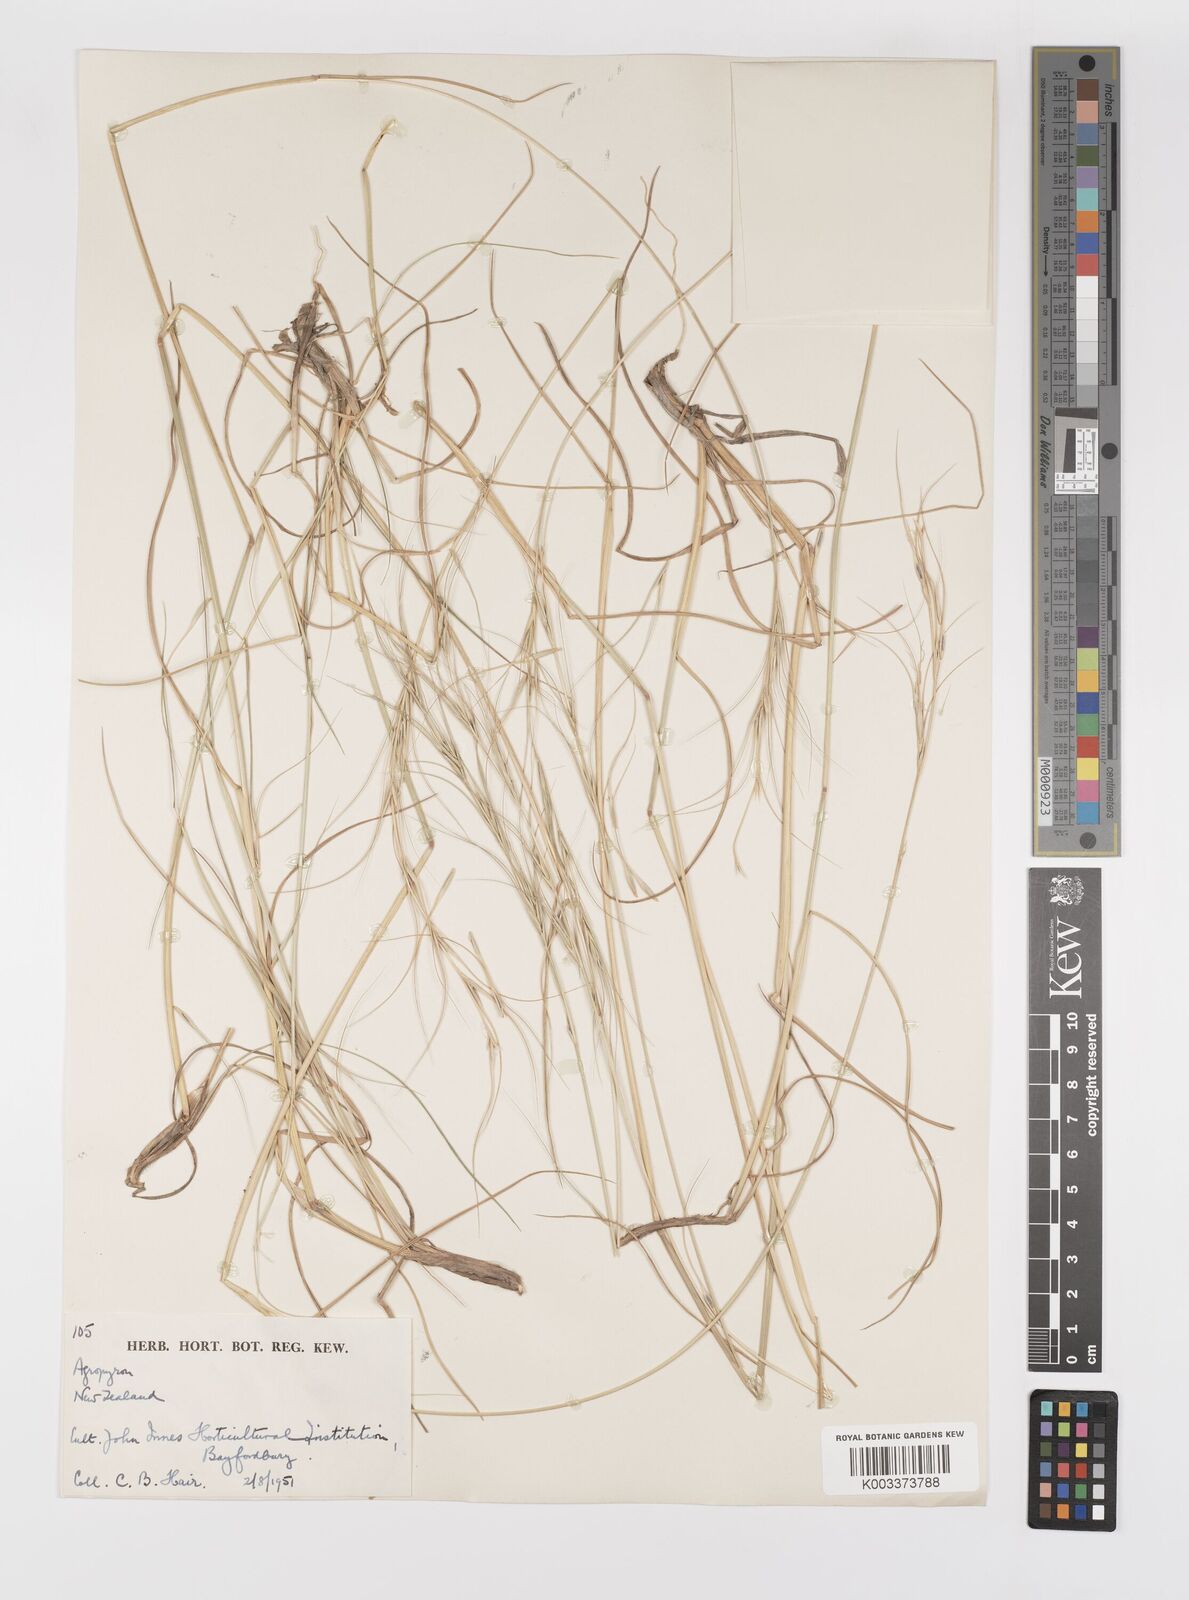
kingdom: Plantae
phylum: Tracheophyta
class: Liliopsida
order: Poales
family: Poaceae
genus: Elymus
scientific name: Elymus
